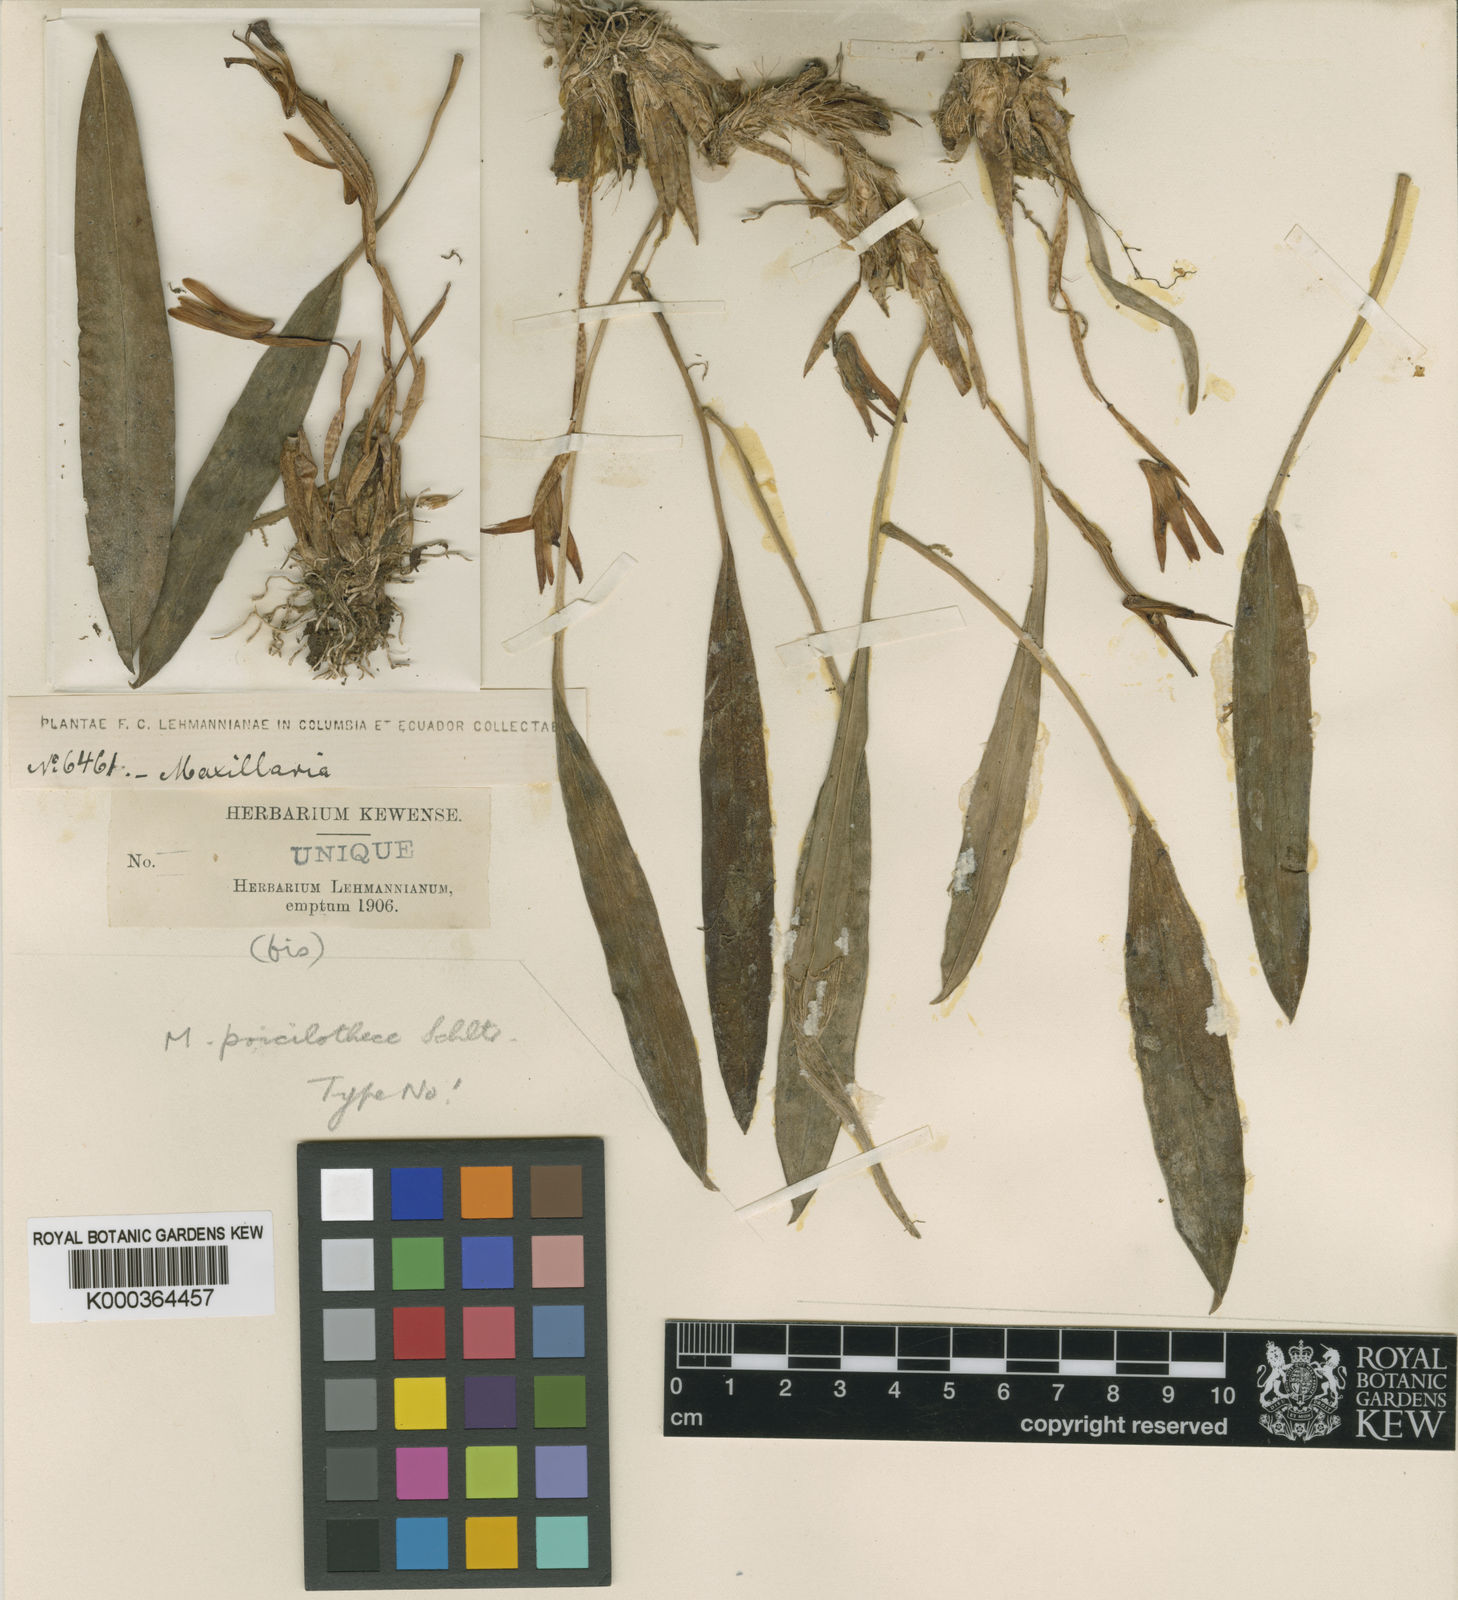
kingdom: Plantae
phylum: Tracheophyta
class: Liliopsida
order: Asparagales
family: Orchidaceae
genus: Maxillaria
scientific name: Maxillaria poicilothece
